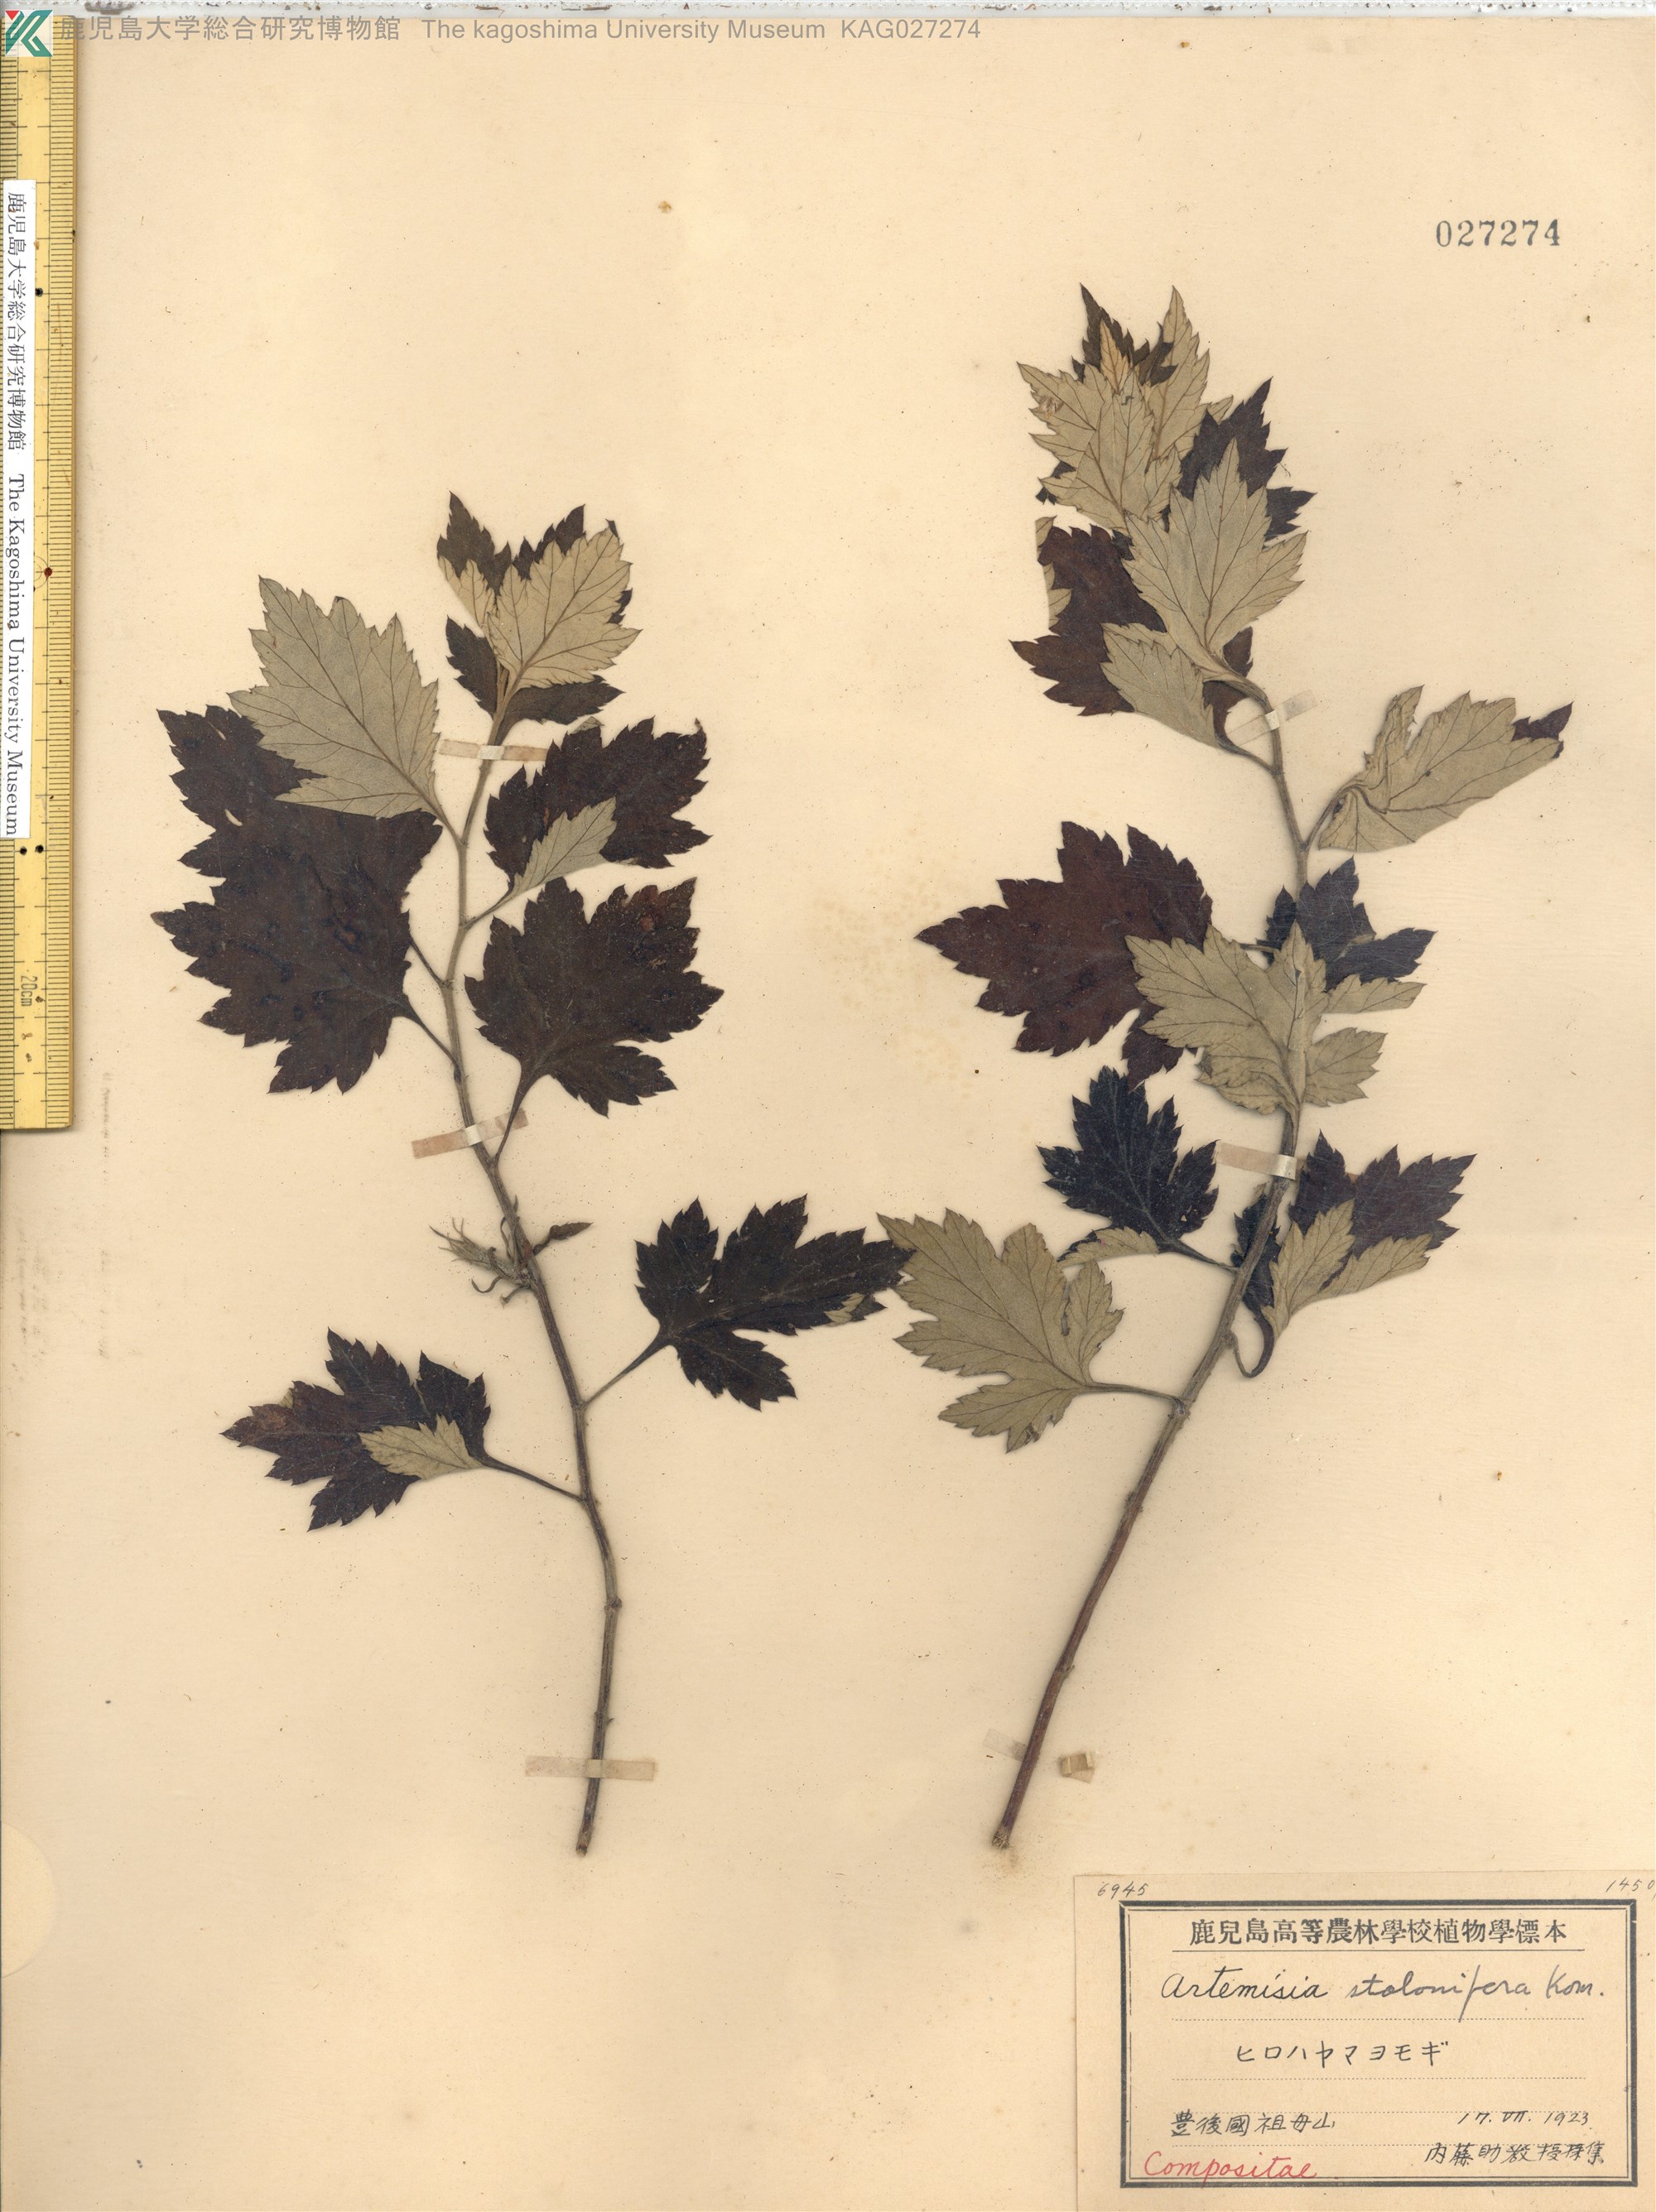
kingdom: Plantae
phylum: Tracheophyta
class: Magnoliopsida
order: Asterales
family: Asteraceae
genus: Artemisia
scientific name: Artemisia stolonifera
